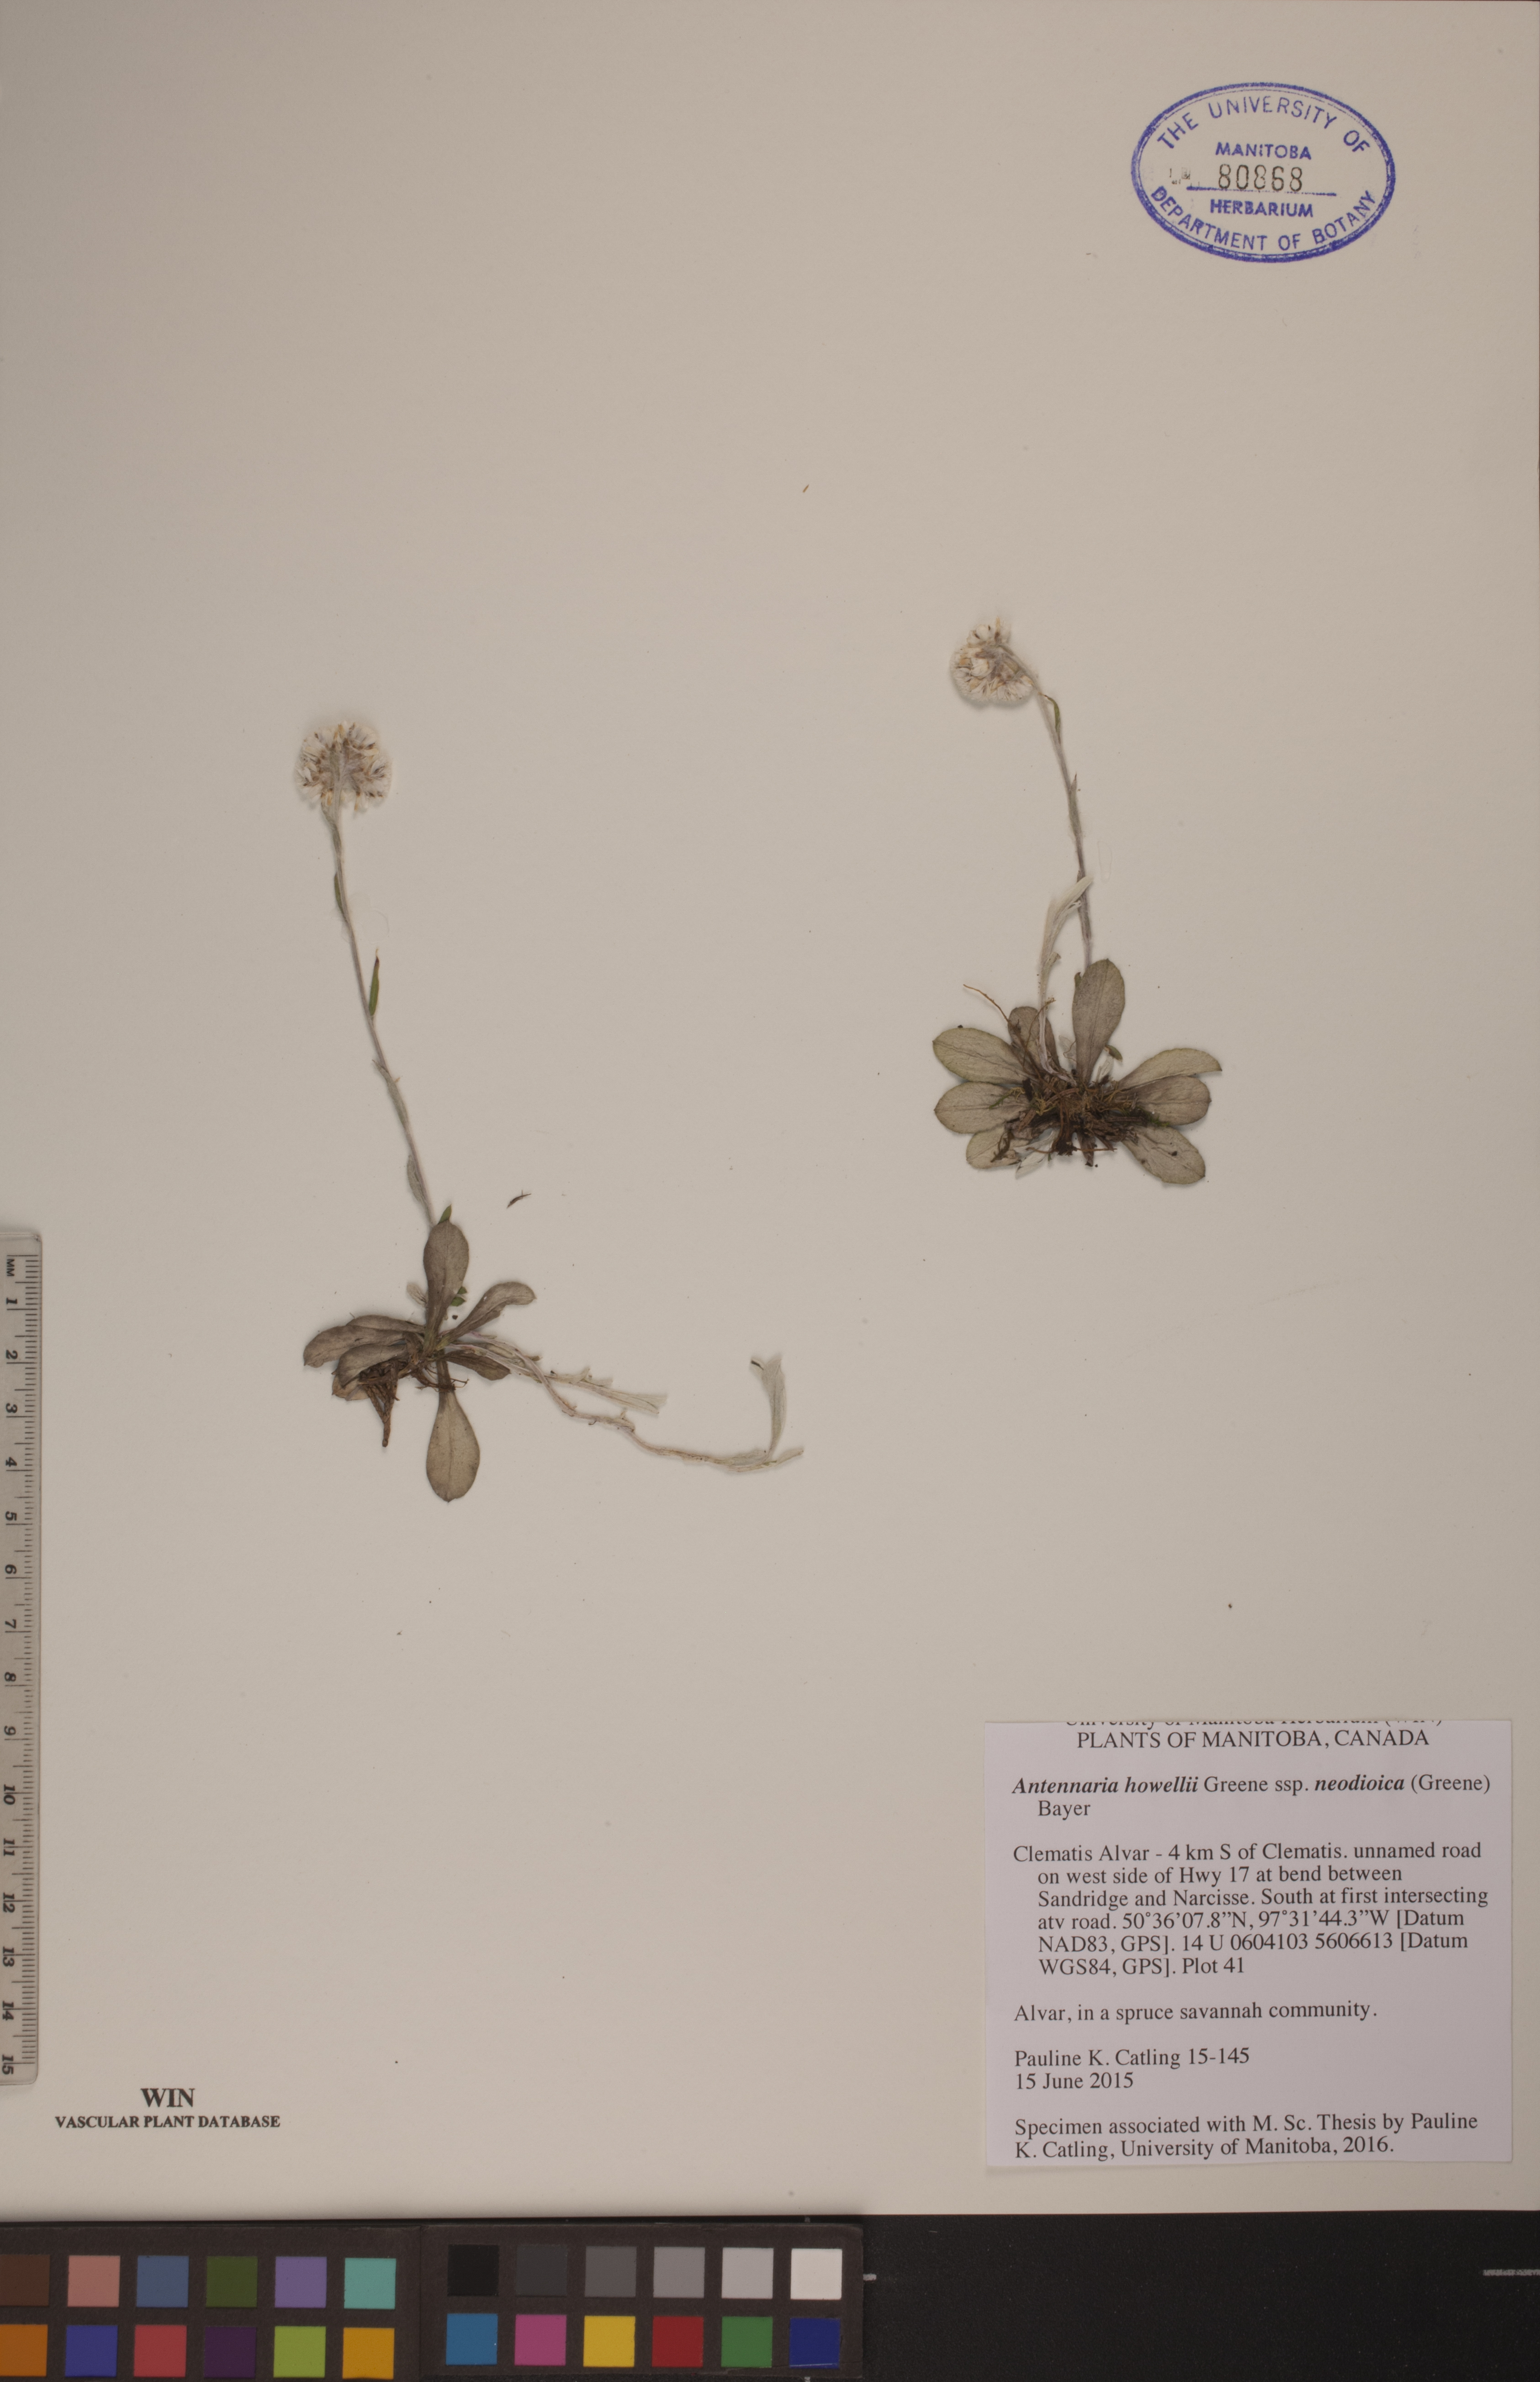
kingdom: Plantae
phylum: Tracheophyta
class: Magnoliopsida
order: Asterales
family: Asteraceae
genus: Antennaria
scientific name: Antennaria howellii
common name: Howell's pussytoes
